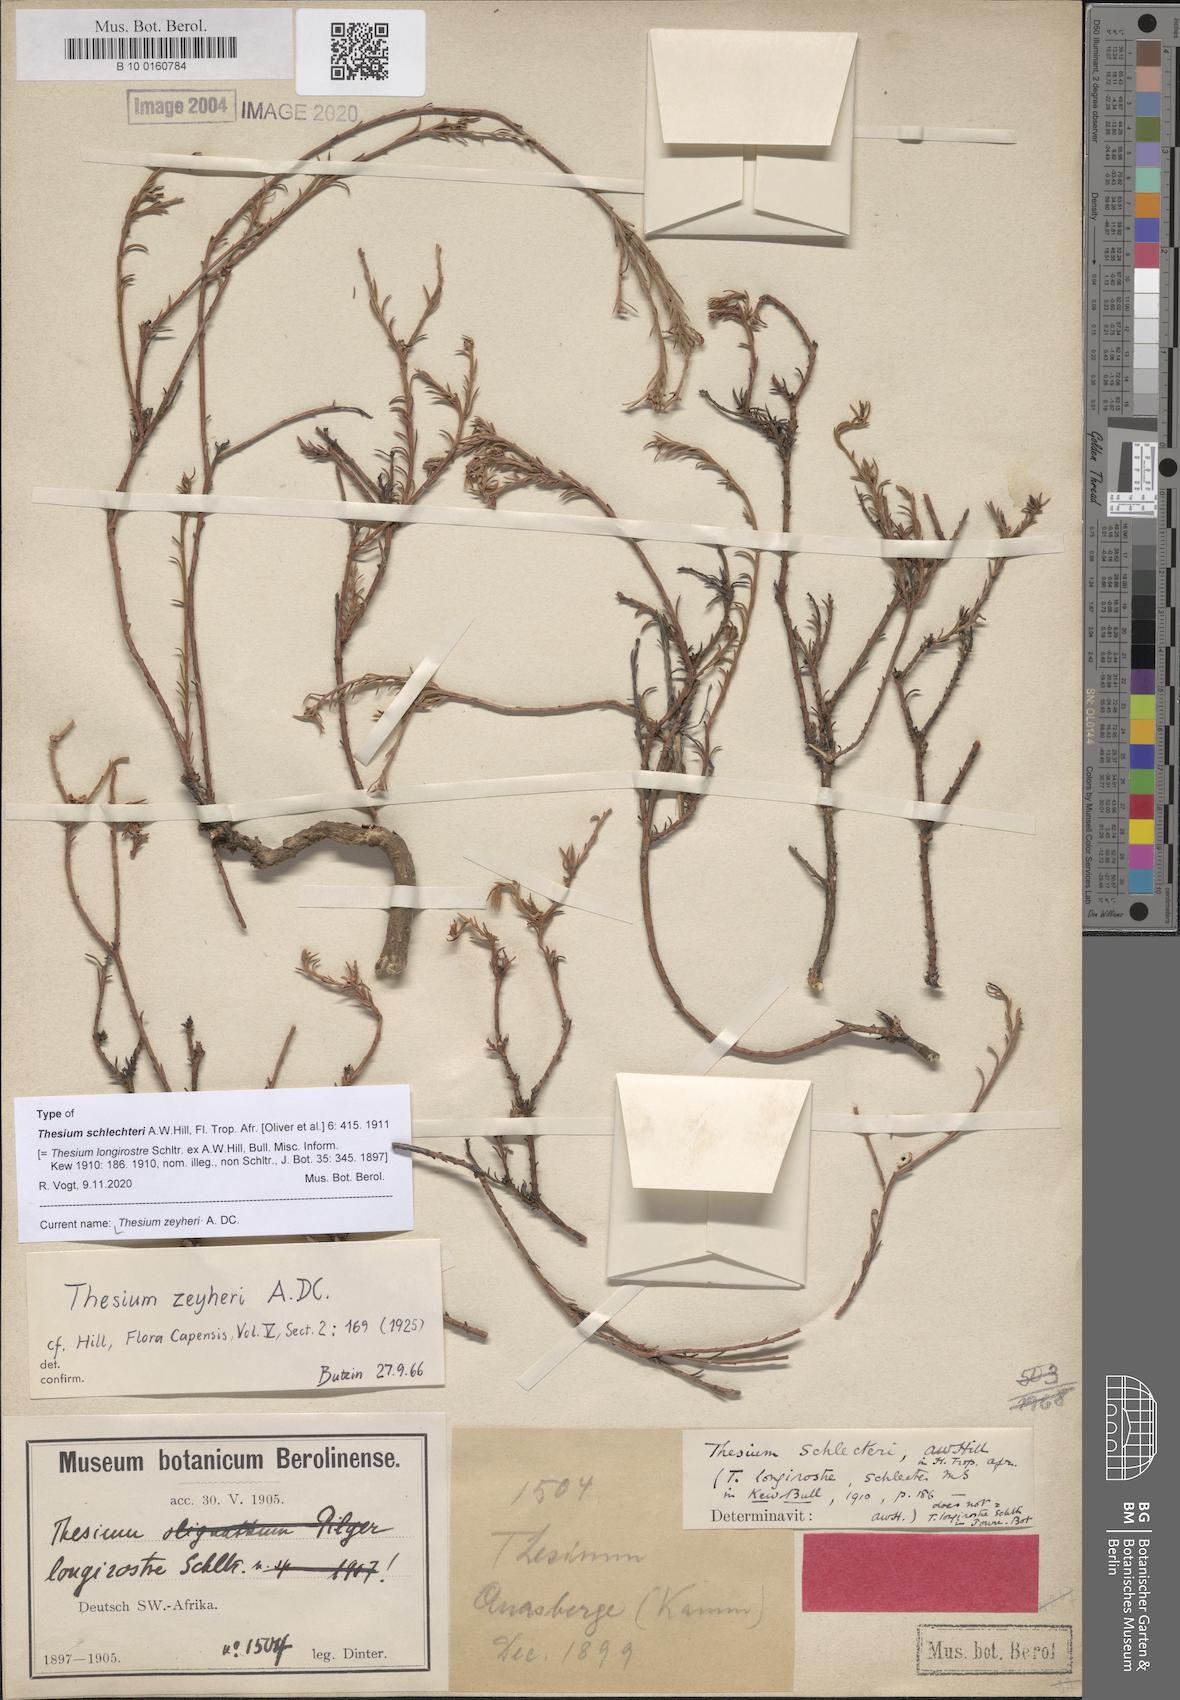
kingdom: Plantae
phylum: Tracheophyta
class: Magnoliopsida
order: Santalales
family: Thesiaceae
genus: Thesium
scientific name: Thesium zeyheri
